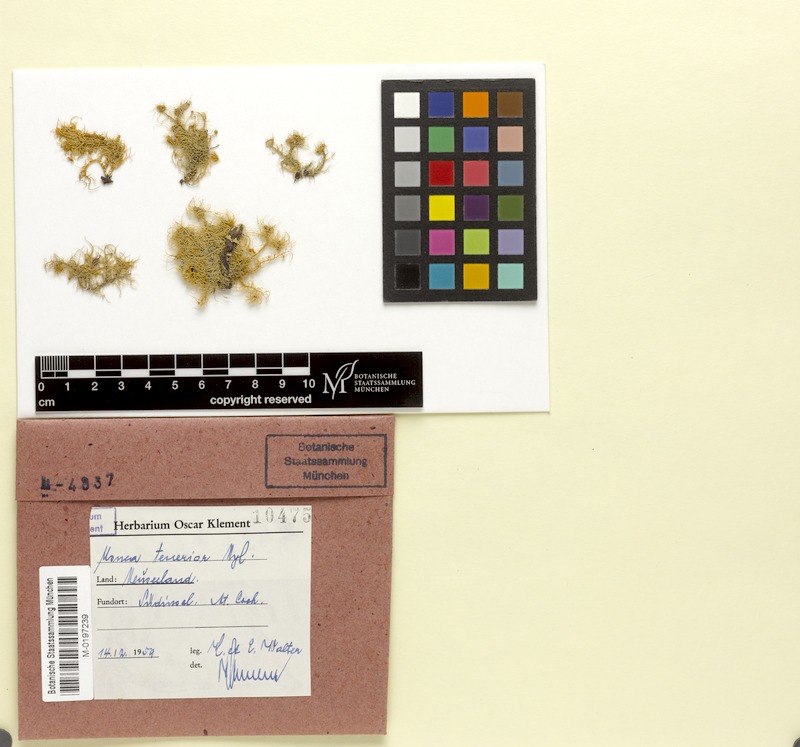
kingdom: Fungi
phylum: Ascomycota
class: Lecanoromycetes
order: Lecanorales
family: Parmeliaceae
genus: Usnea
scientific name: Usnea
